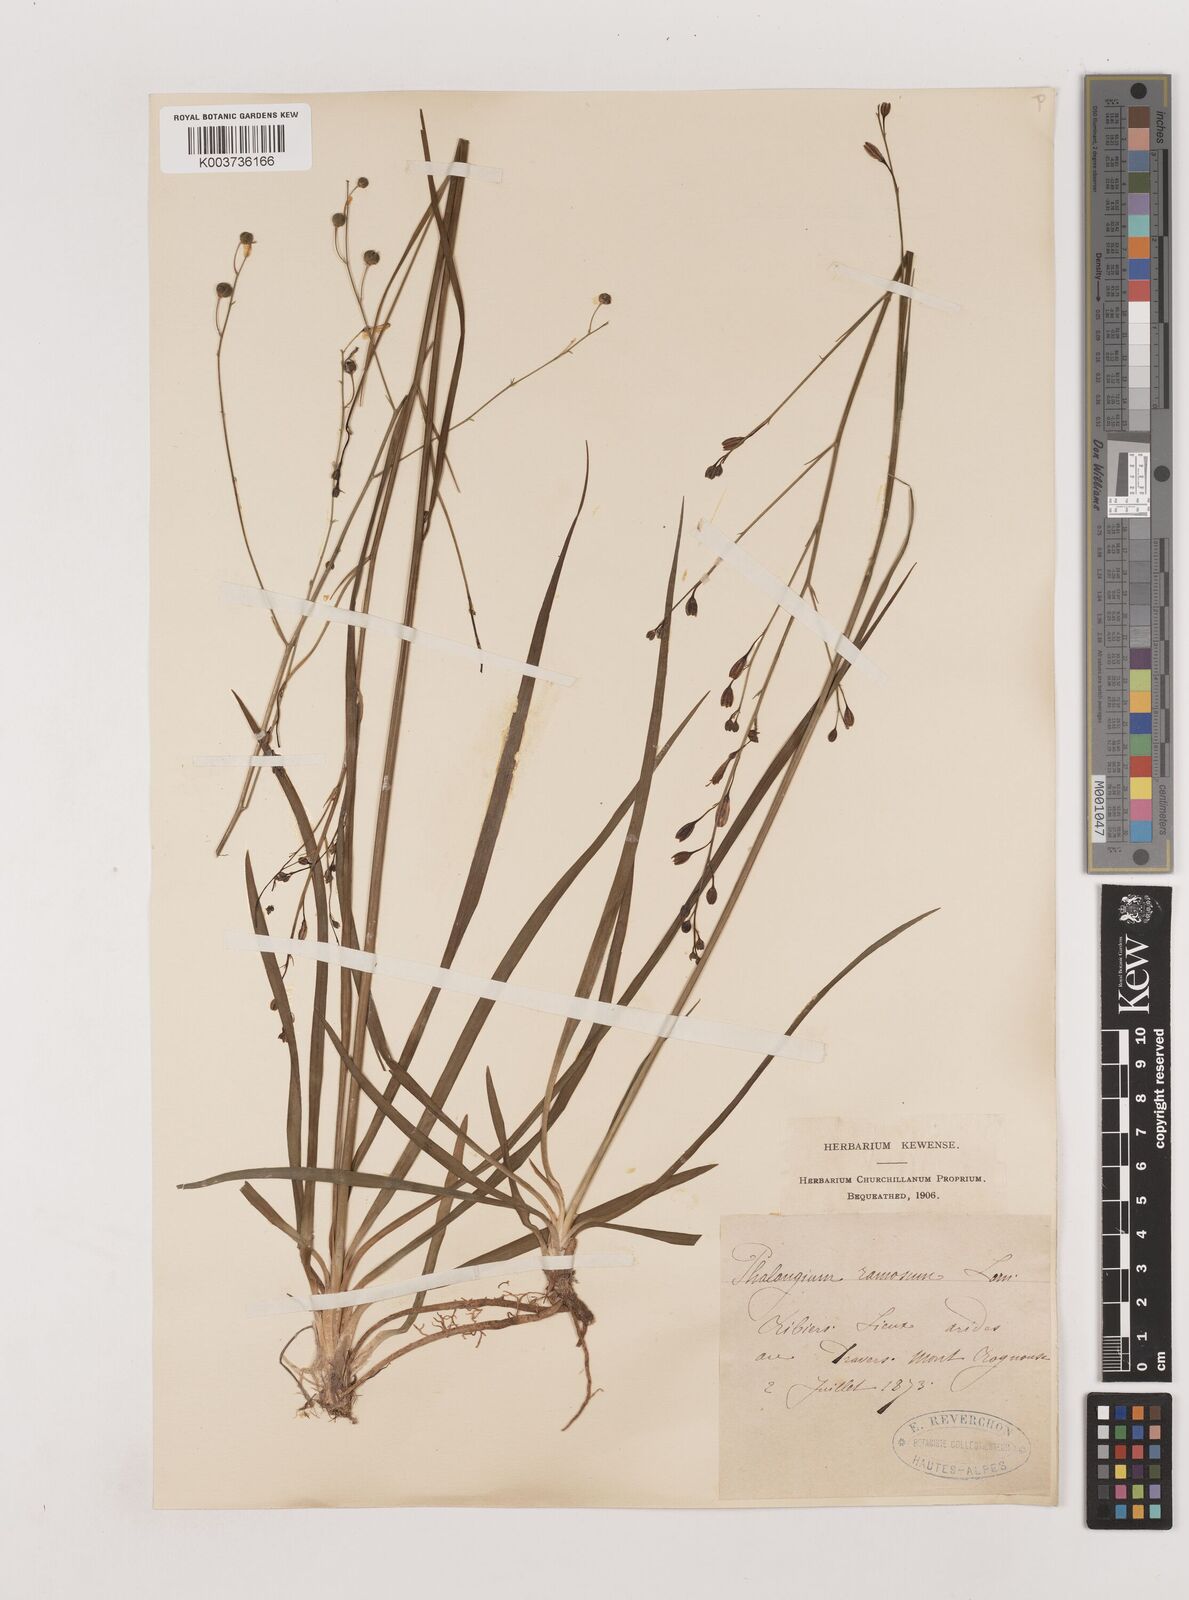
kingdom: Plantae
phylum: Tracheophyta
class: Liliopsida
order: Asparagales
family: Asparagaceae
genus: Anthericum
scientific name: Anthericum ramosum
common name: Branched st. bernard's-lily
